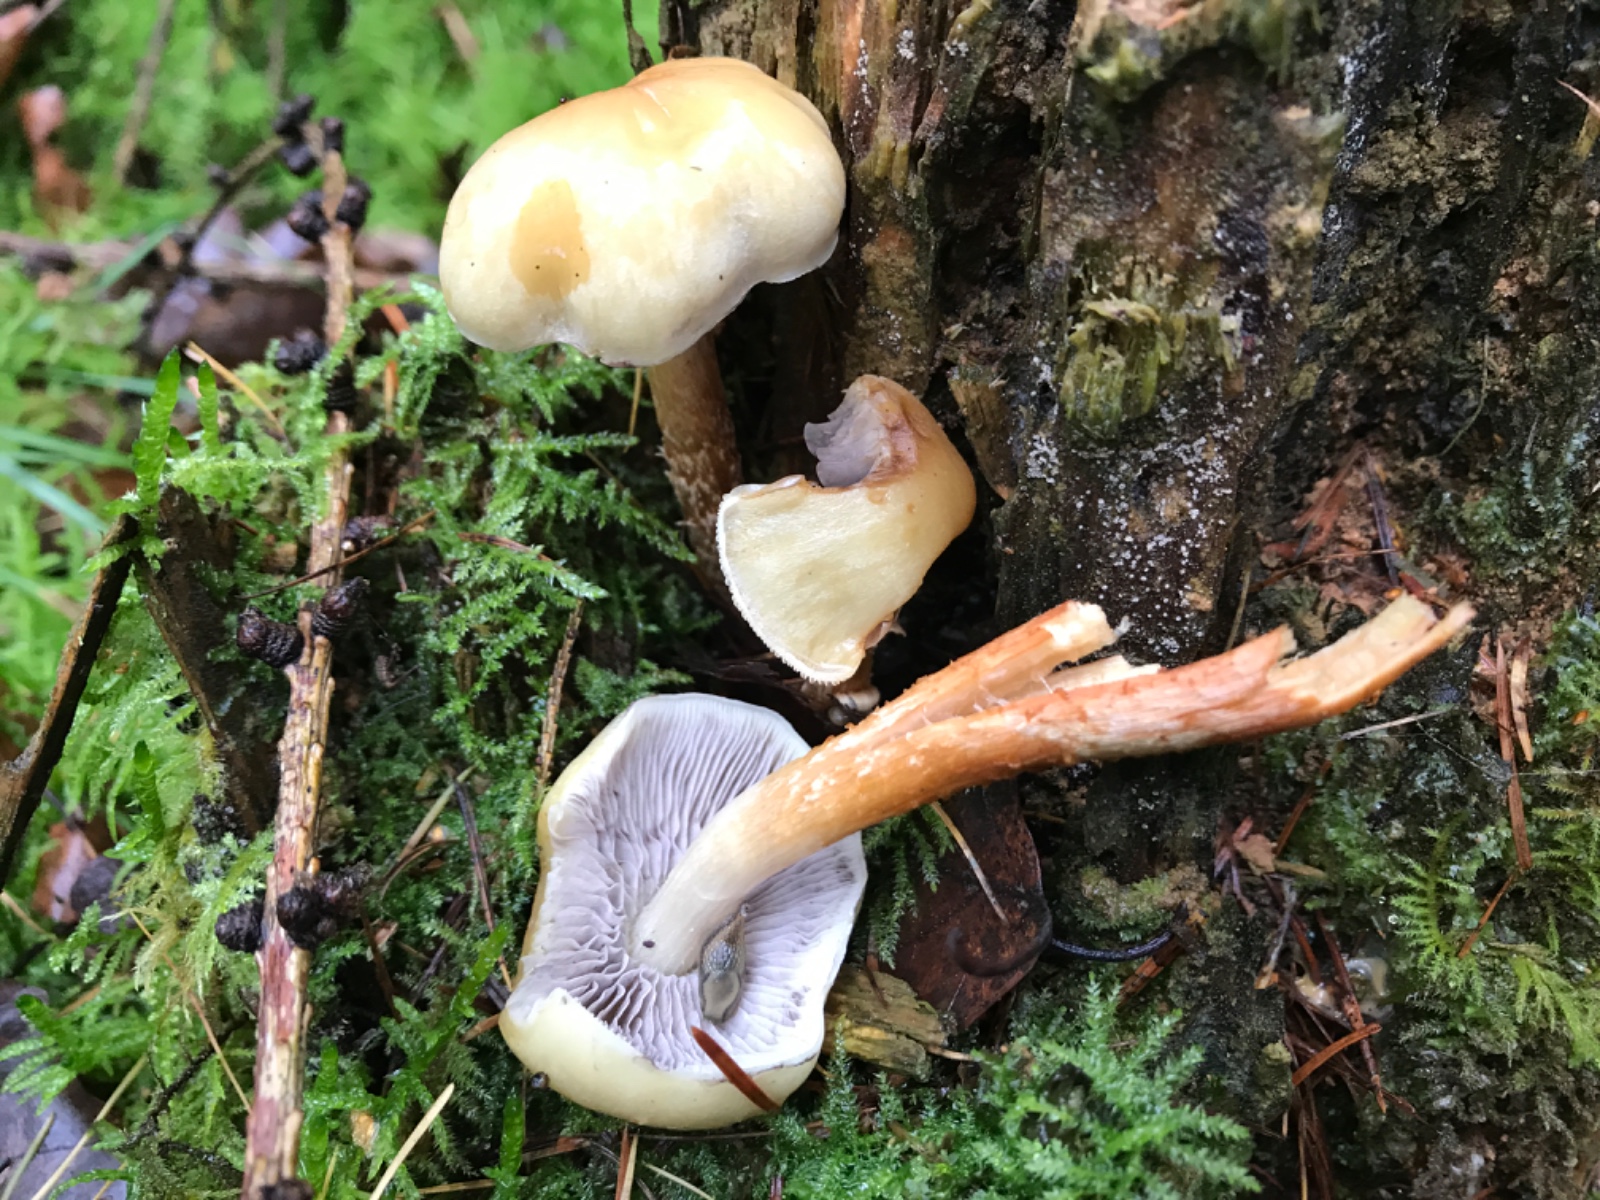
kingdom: Fungi
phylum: Basidiomycota
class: Agaricomycetes
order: Agaricales
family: Strophariaceae
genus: Hypholoma
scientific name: Hypholoma capnoides
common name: gran-svovlhat
